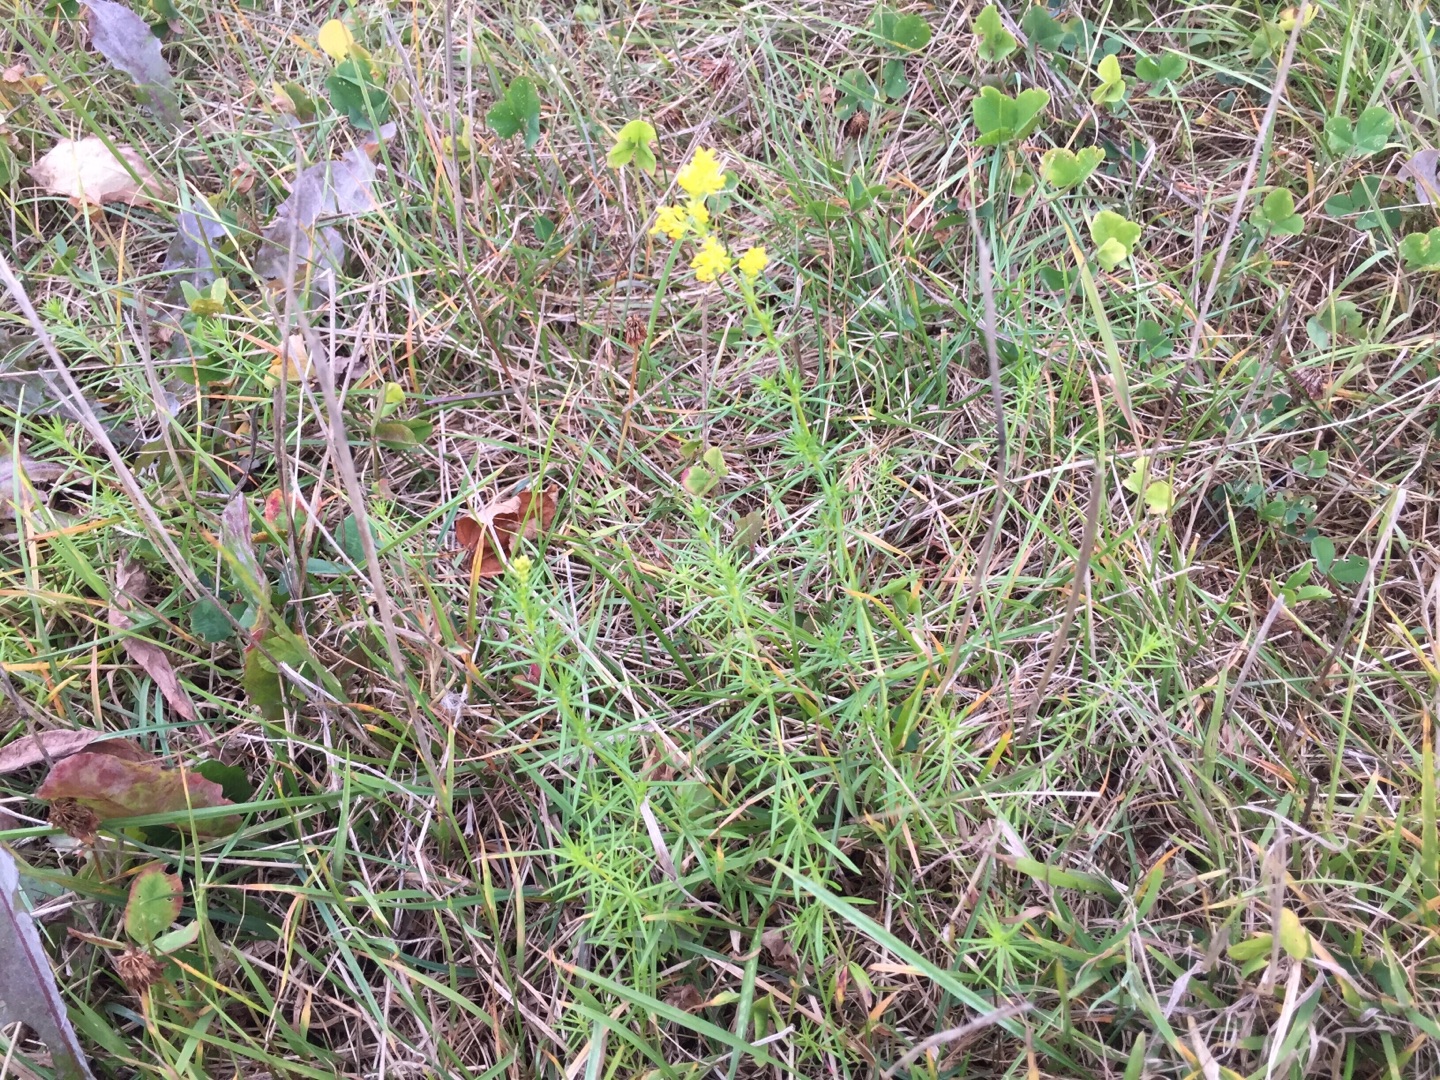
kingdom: Plantae
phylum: Tracheophyta
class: Magnoliopsida
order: Gentianales
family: Rubiaceae
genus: Galium
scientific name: Galium verum
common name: Gul snerre
